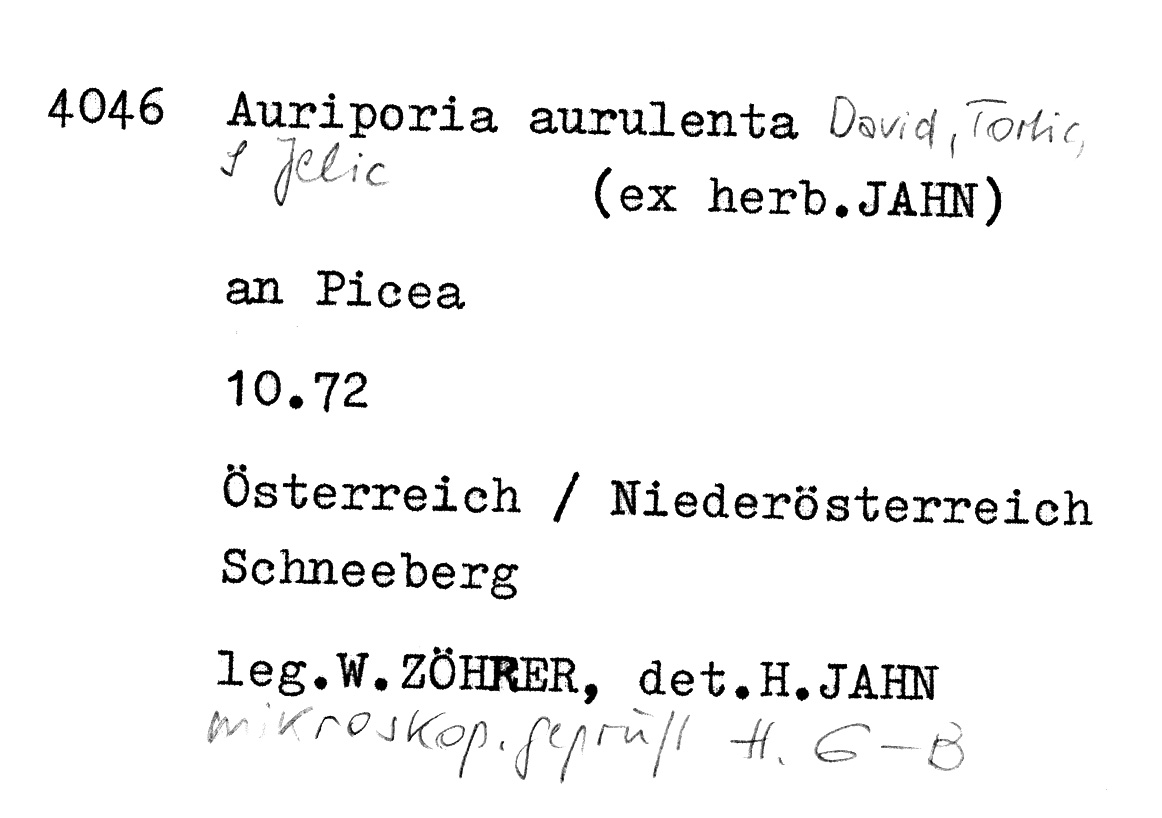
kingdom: Fungi
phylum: Basidiomycota
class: Agaricomycetes
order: Polyporales
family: Fomitopsidaceae
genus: Auriporia
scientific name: Auriporia aurulenta
